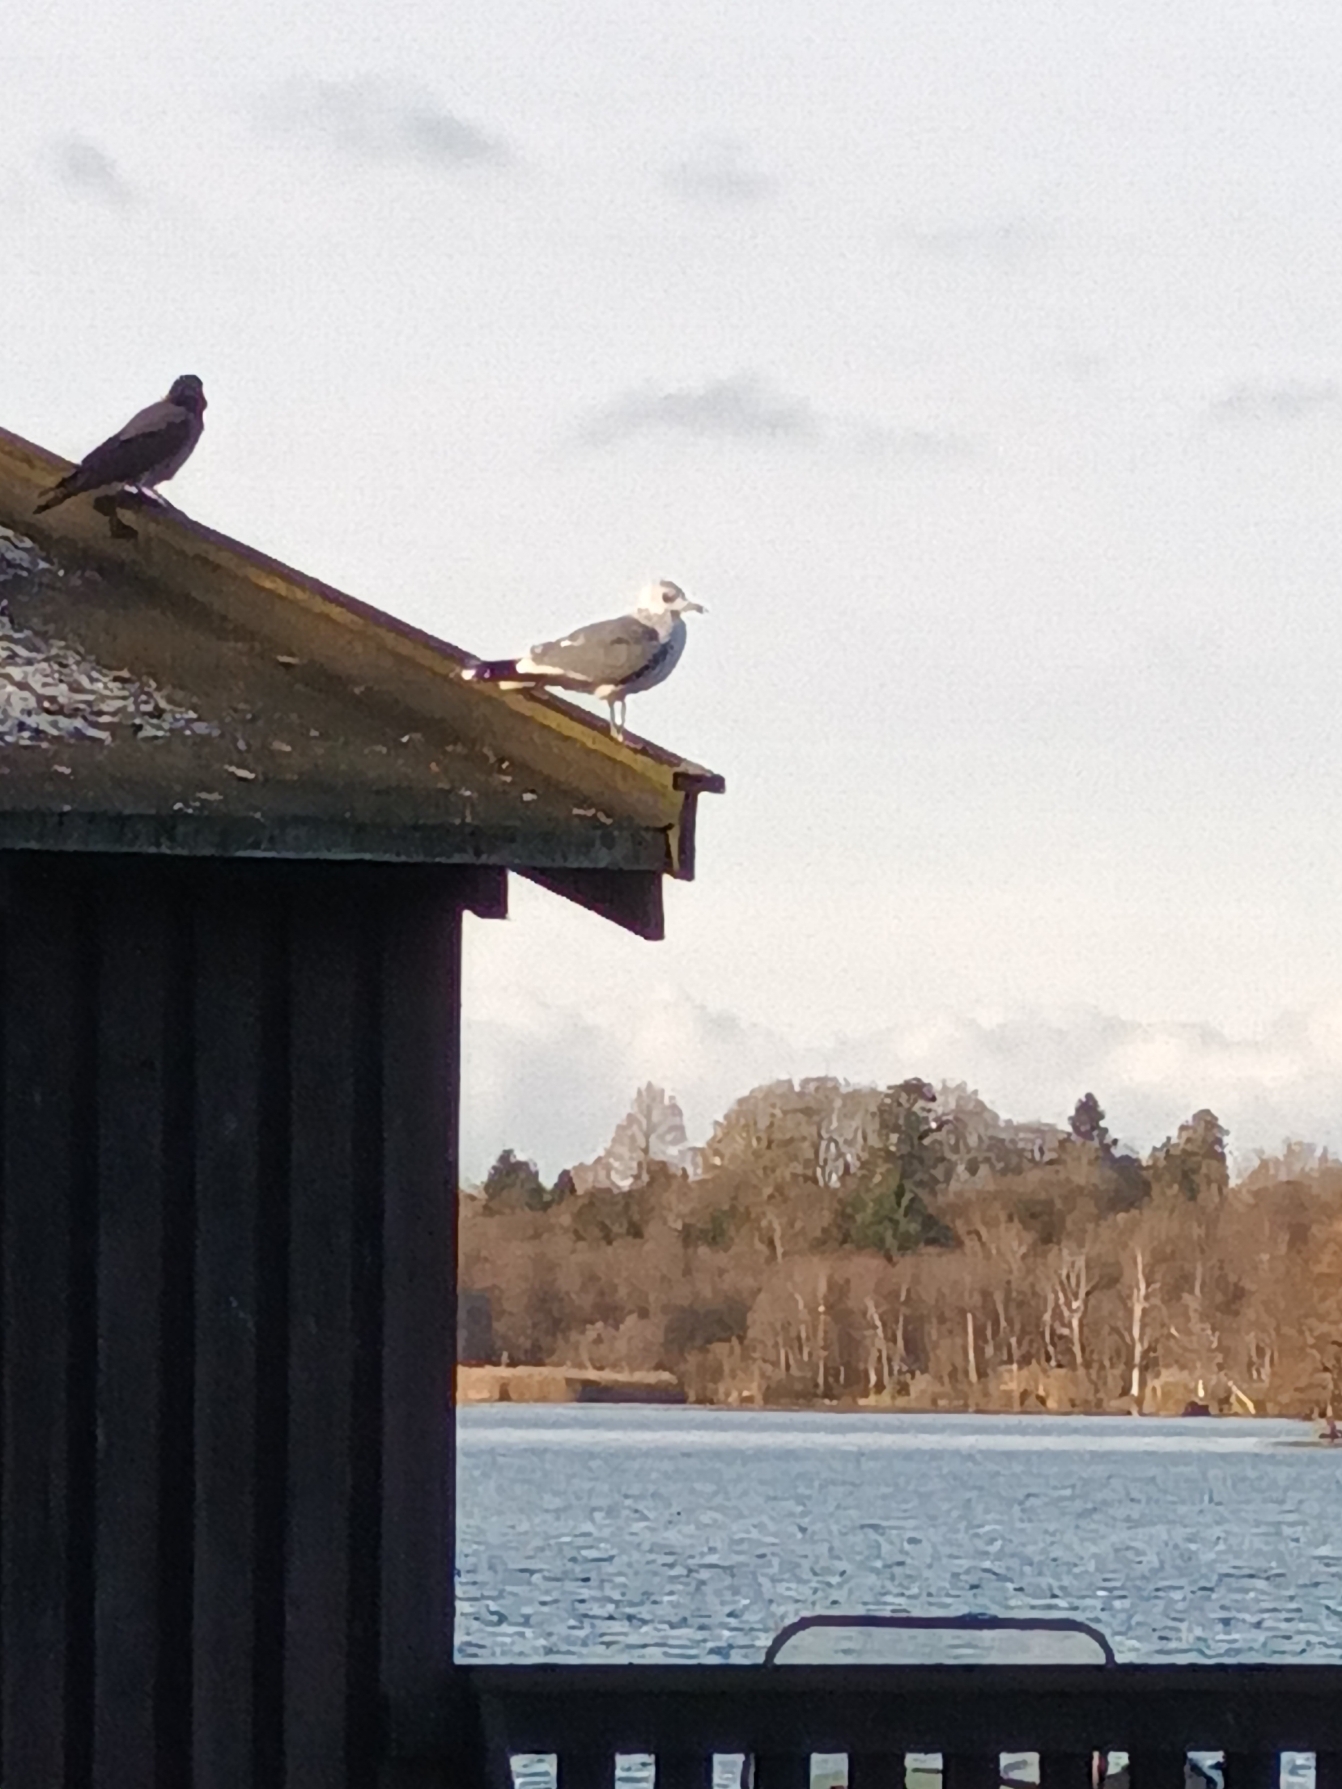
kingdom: Animalia
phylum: Chordata
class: Aves
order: Charadriiformes
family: Laridae
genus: Larus
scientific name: Larus canus
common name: Stormmåge
